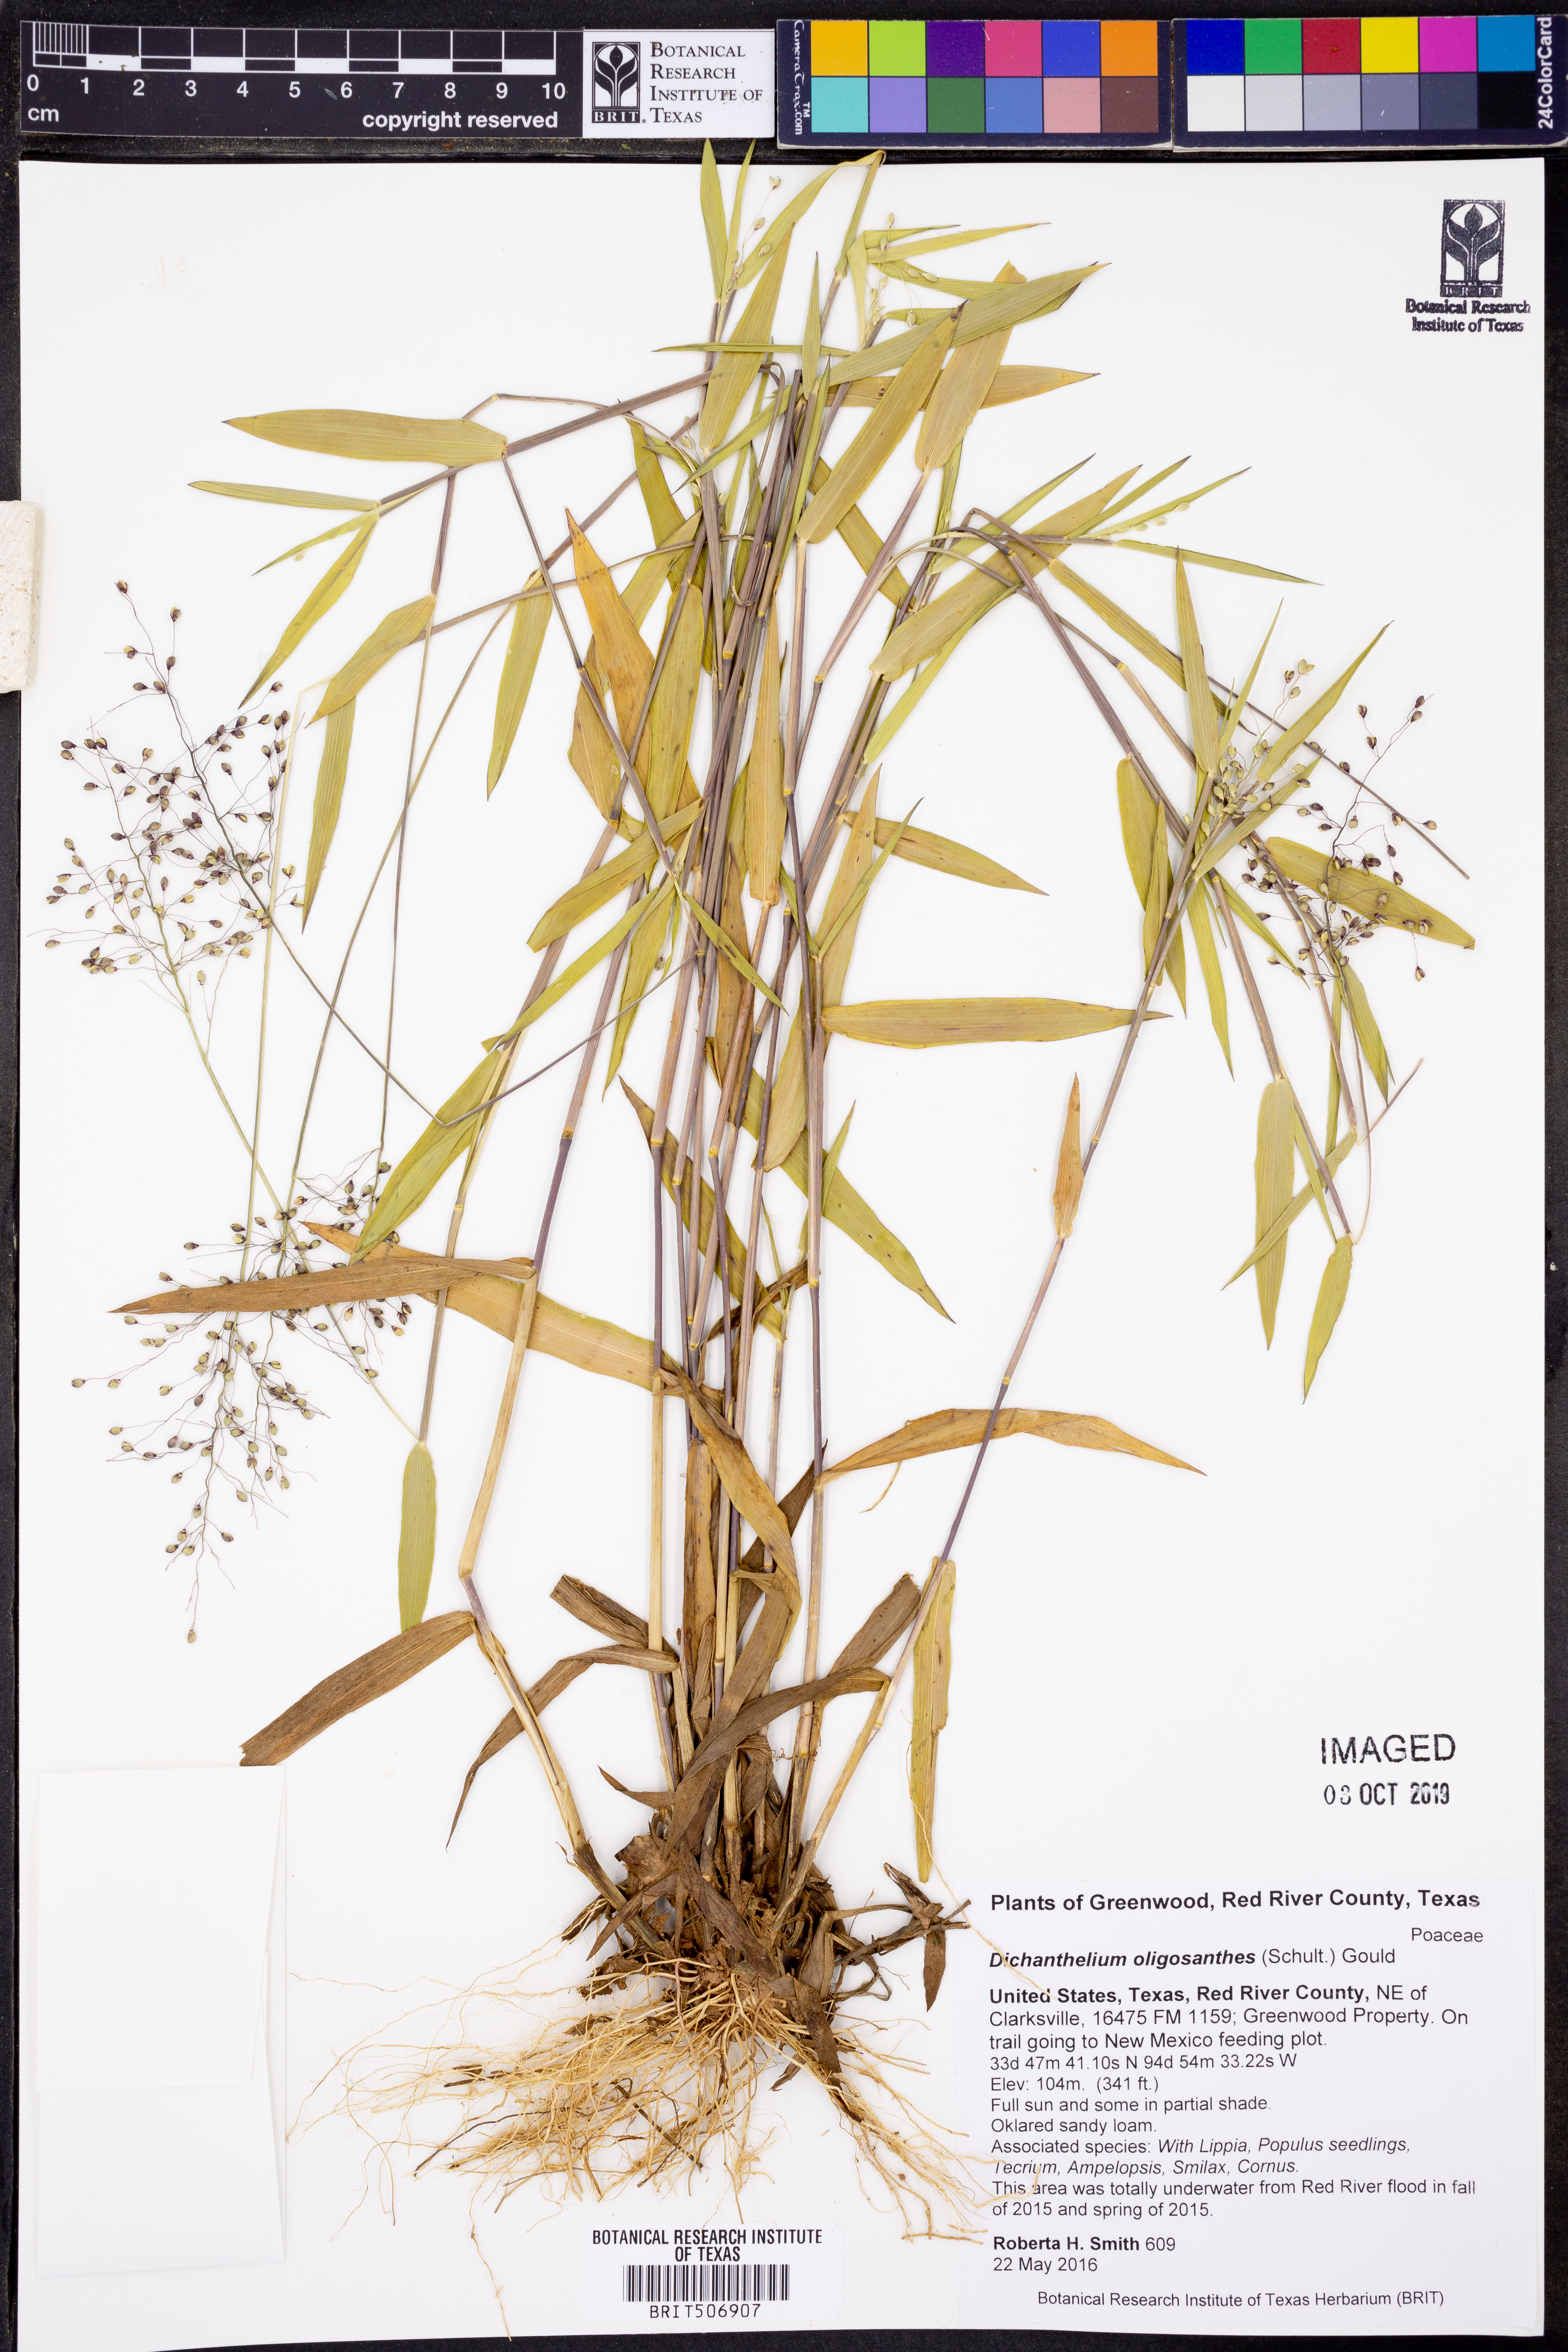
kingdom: Plantae
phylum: Tracheophyta
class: Liliopsida
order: Poales
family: Poaceae
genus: Dichanthelium
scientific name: Dichanthelium oligosanthes
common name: Few-anther obscuregrass
